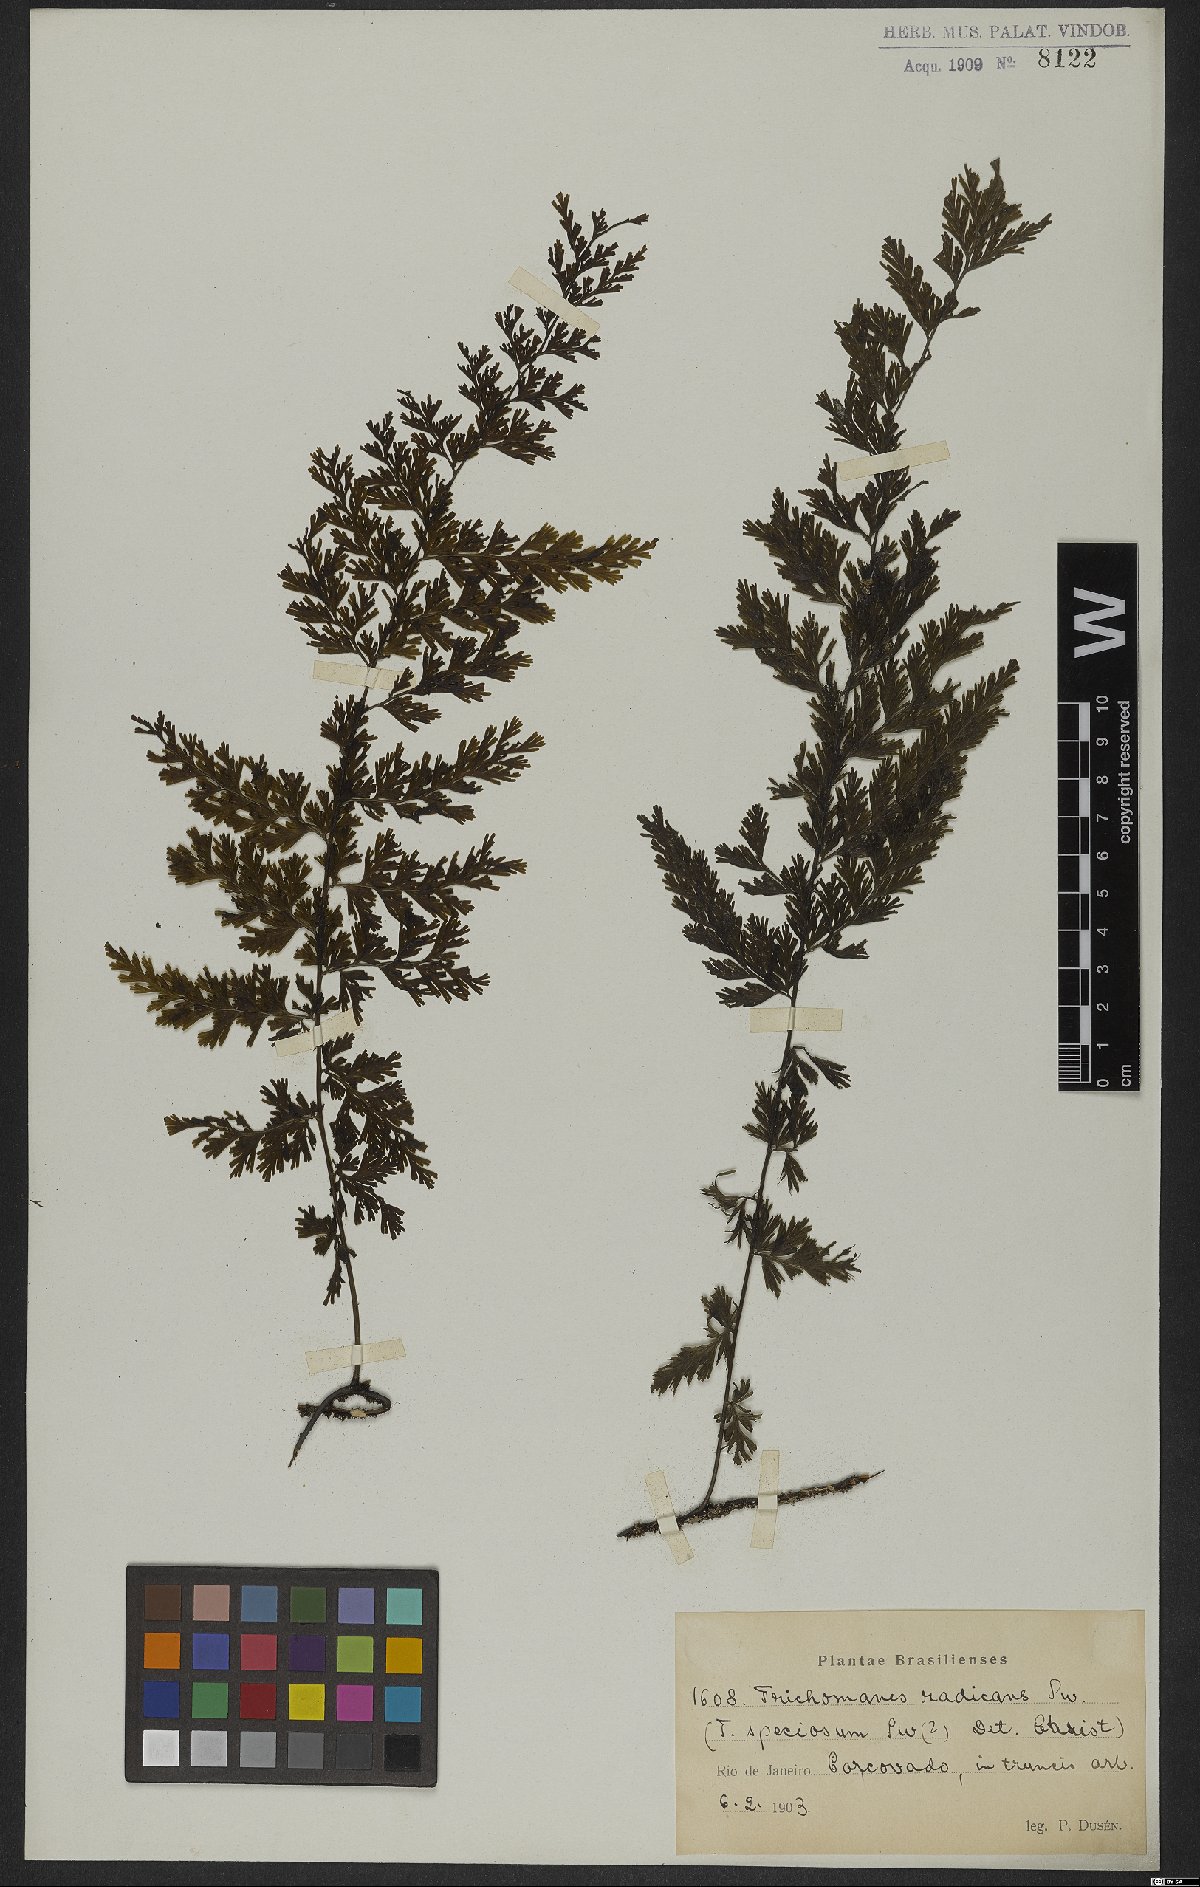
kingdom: Plantae
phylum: Tracheophyta
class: Polypodiopsida
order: Hymenophyllales
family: Hymenophyllaceae
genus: Vandenboschia
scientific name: Vandenboschia radicans
